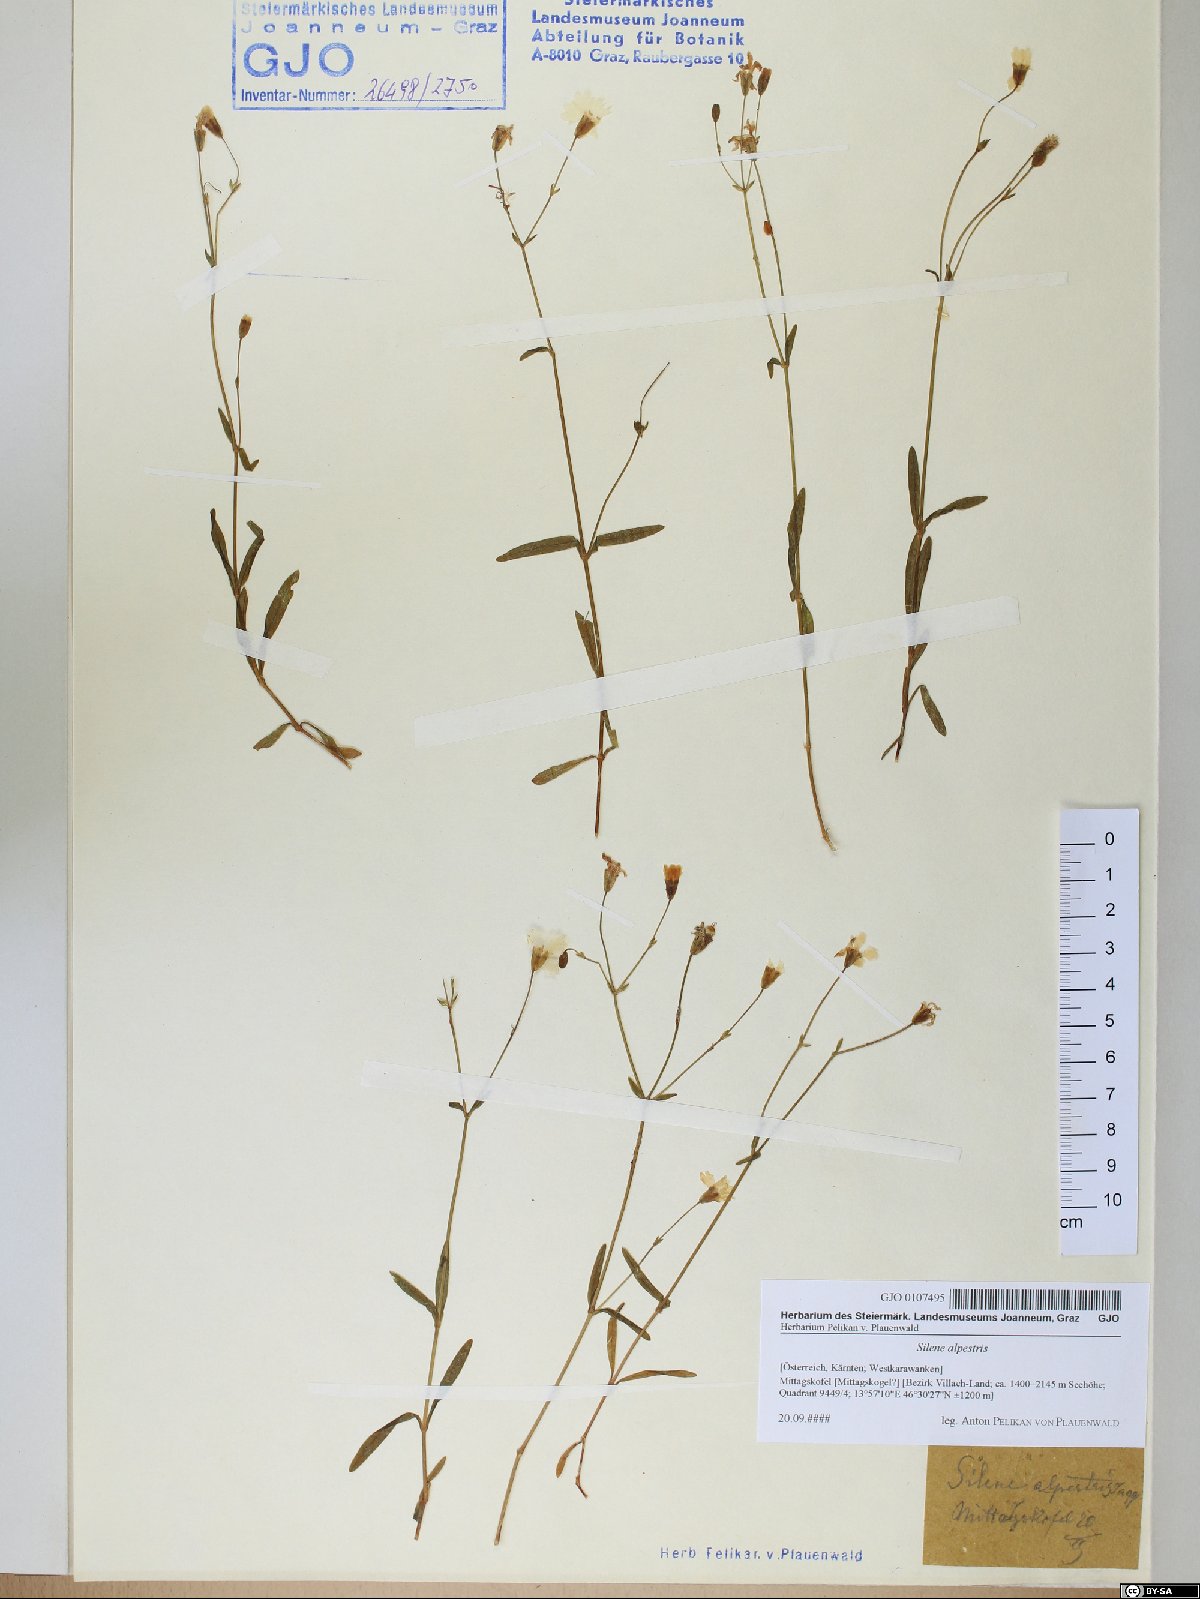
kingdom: Plantae
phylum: Tracheophyta
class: Magnoliopsida
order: Caryophyllales
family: Caryophyllaceae
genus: Heliosperma
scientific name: Heliosperma alpestre
